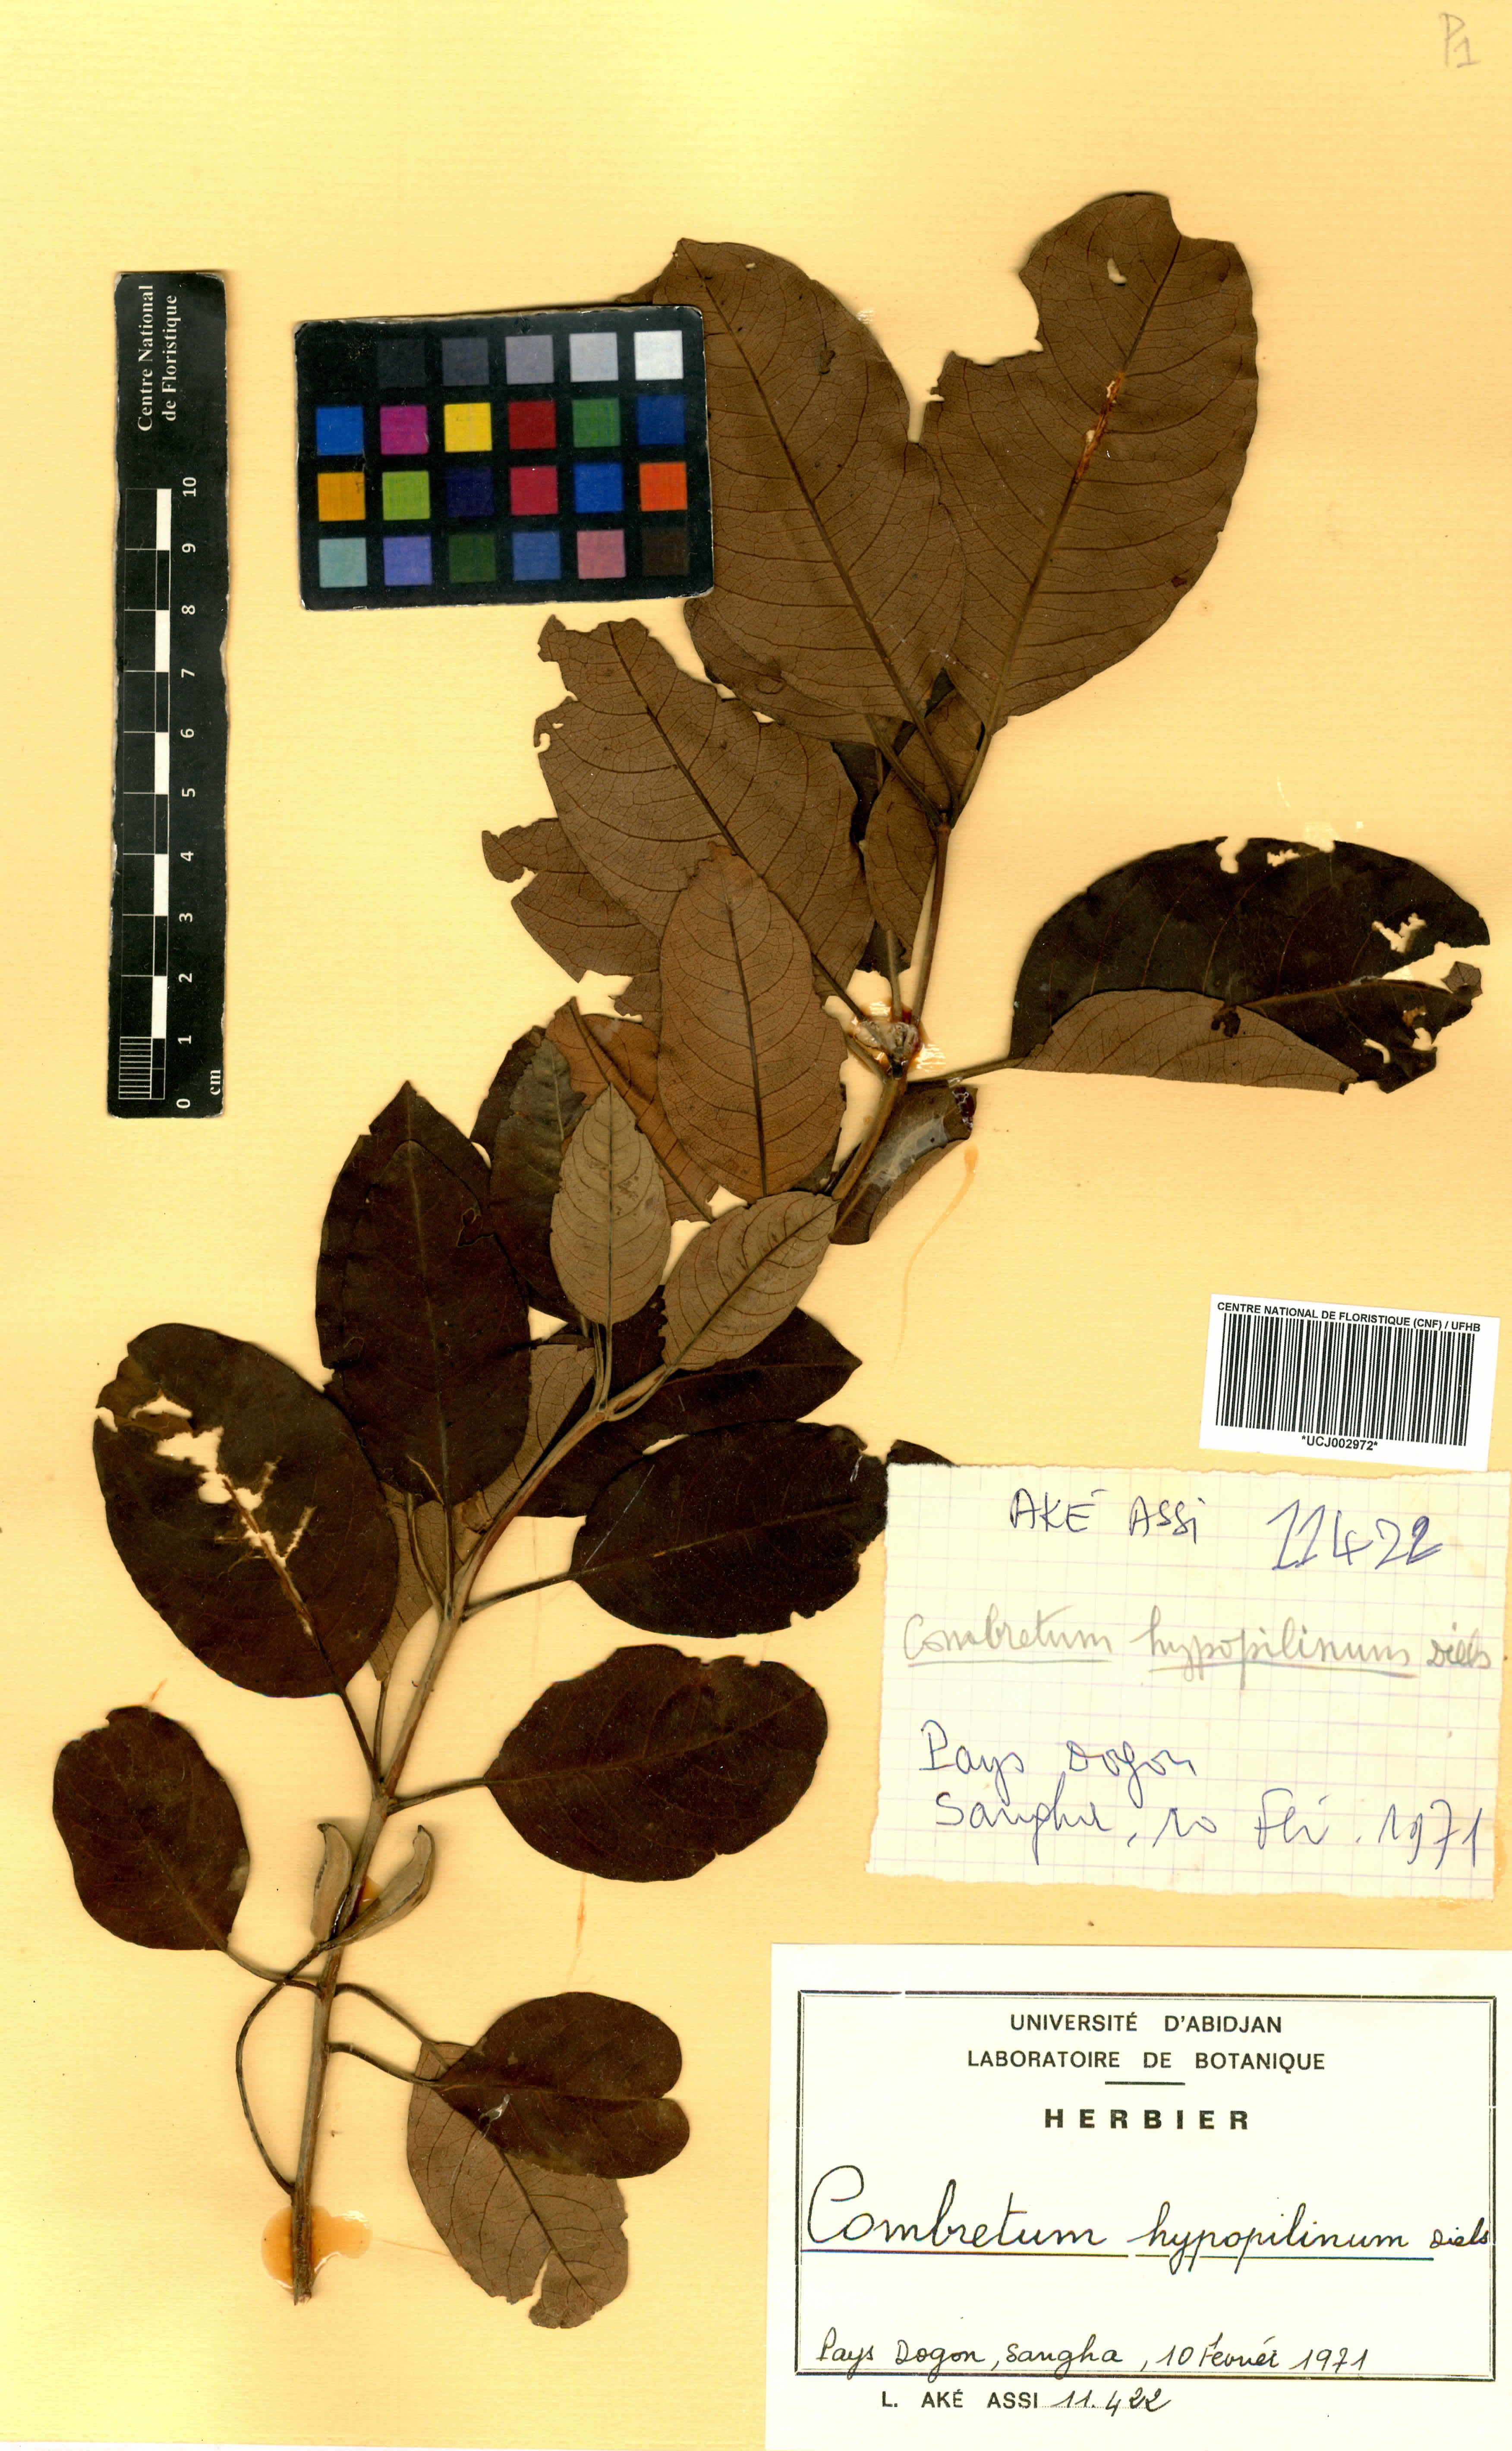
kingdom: Plantae
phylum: Tracheophyta
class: Magnoliopsida
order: Myrtales
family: Combretaceae
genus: Combretum
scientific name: Combretum collinum
